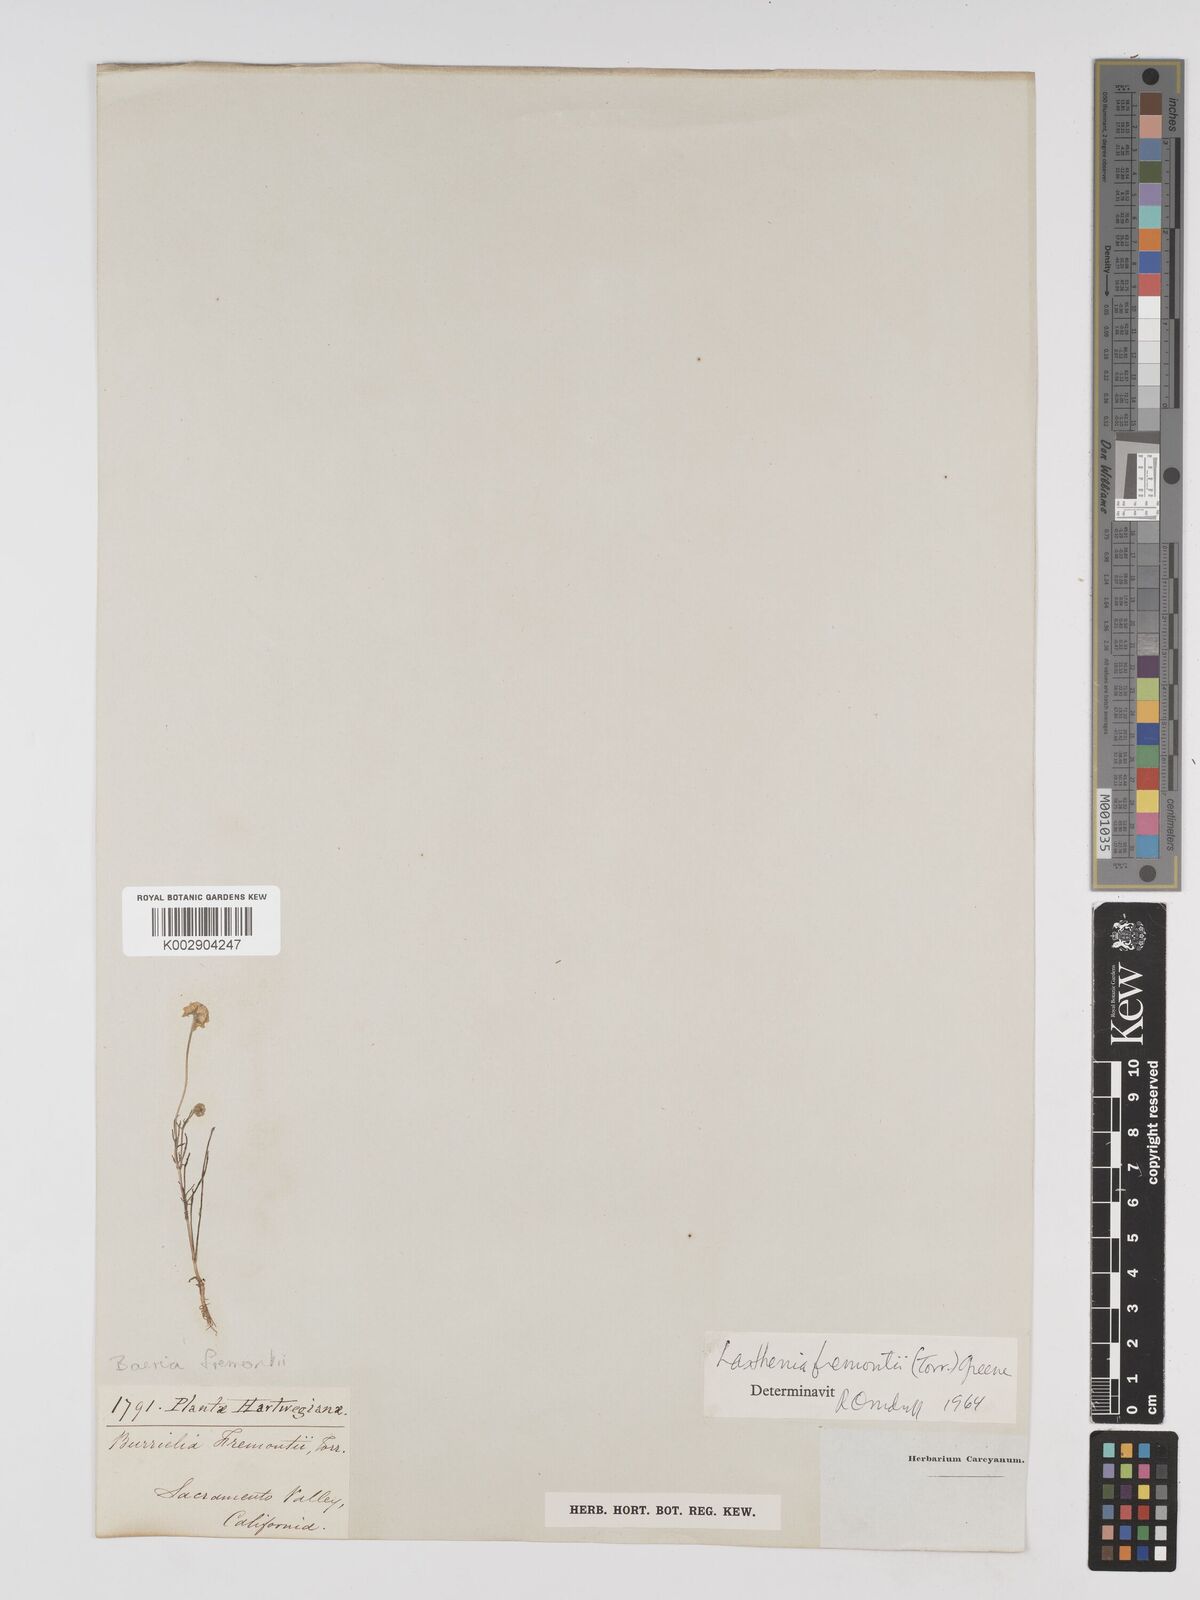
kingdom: Plantae
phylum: Tracheophyta
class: Magnoliopsida
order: Asterales
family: Asteraceae
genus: Lasthenia
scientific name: Lasthenia fremontii
